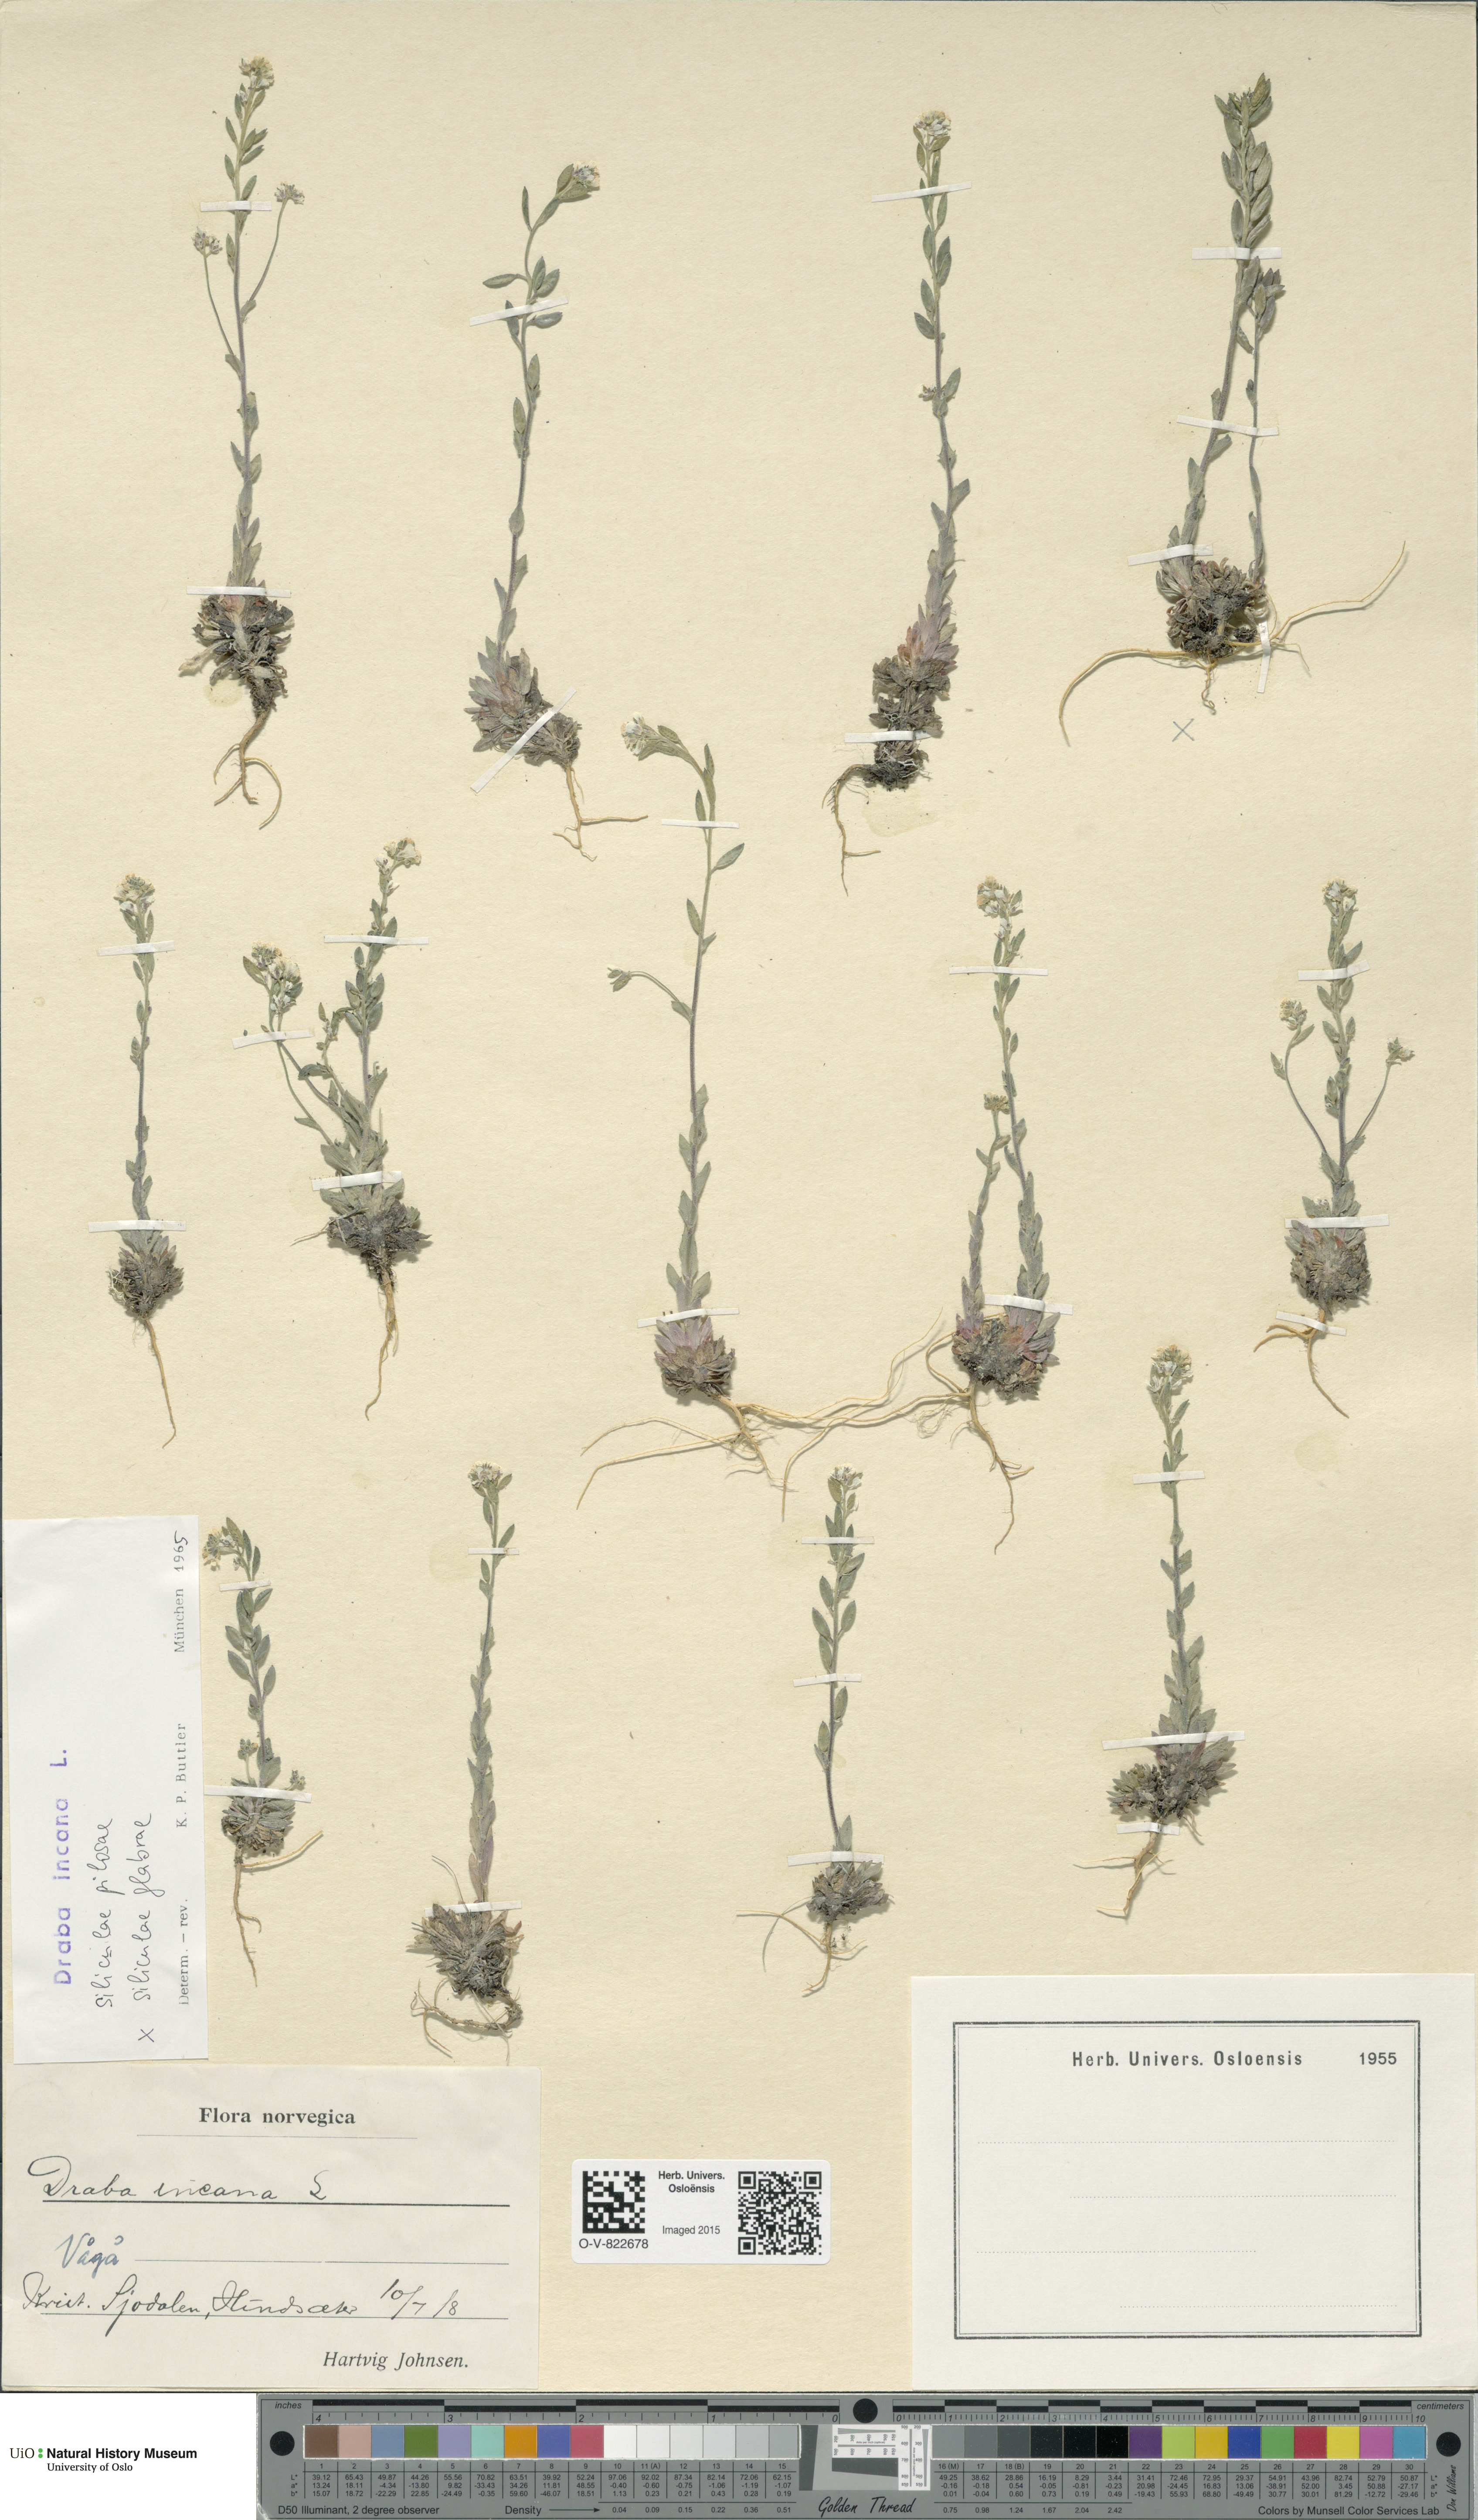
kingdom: Plantae
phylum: Tracheophyta
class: Magnoliopsida
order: Brassicales
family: Brassicaceae
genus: Draba
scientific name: Draba incana
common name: Hoary whitlow-grass
